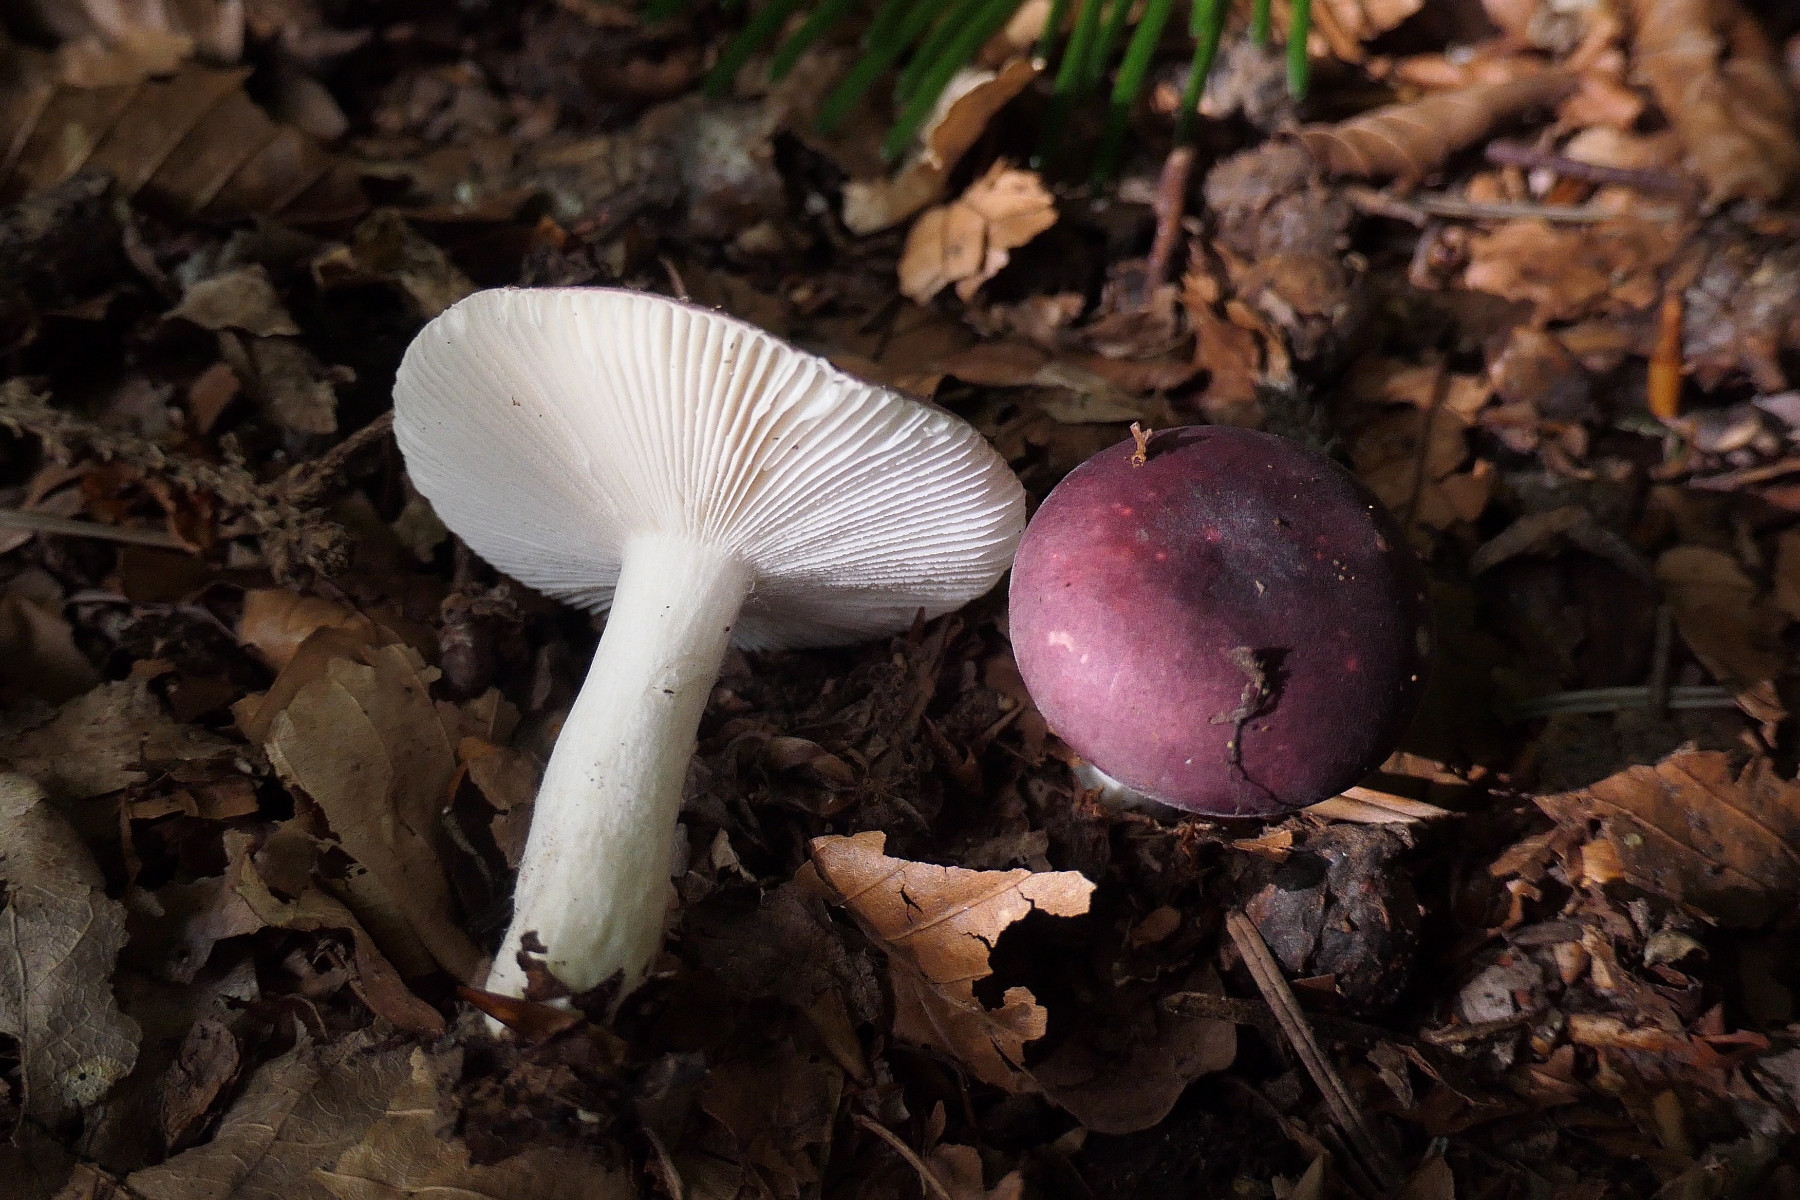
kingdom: Fungi
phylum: Basidiomycota
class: Agaricomycetes
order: Russulales
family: Russulaceae
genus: Russula
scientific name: Russula fragilis
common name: savbladet skørhat
